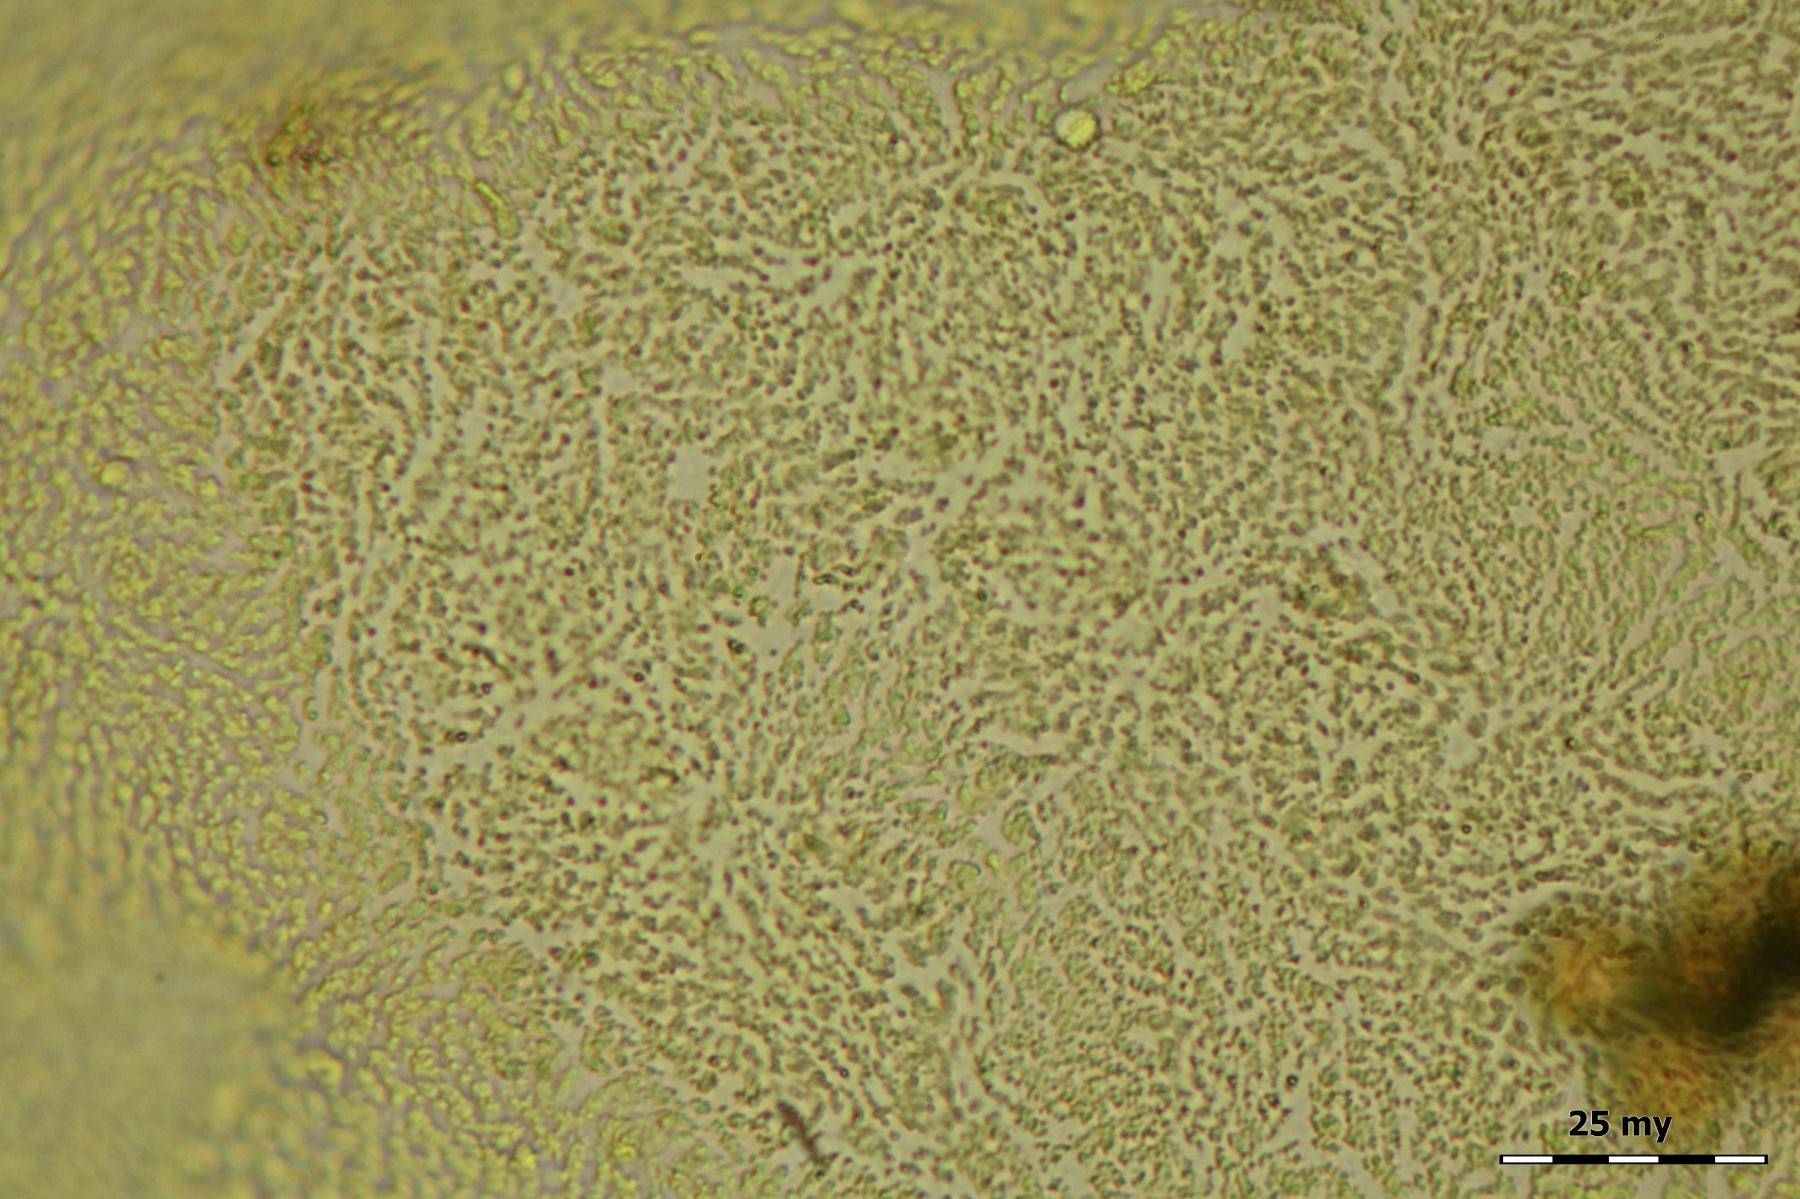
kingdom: Protozoa
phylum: Mycetozoa
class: Myxomycetes
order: Trichiales
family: Trichiaceae
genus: Oligonema
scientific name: Oligonema flavidum
